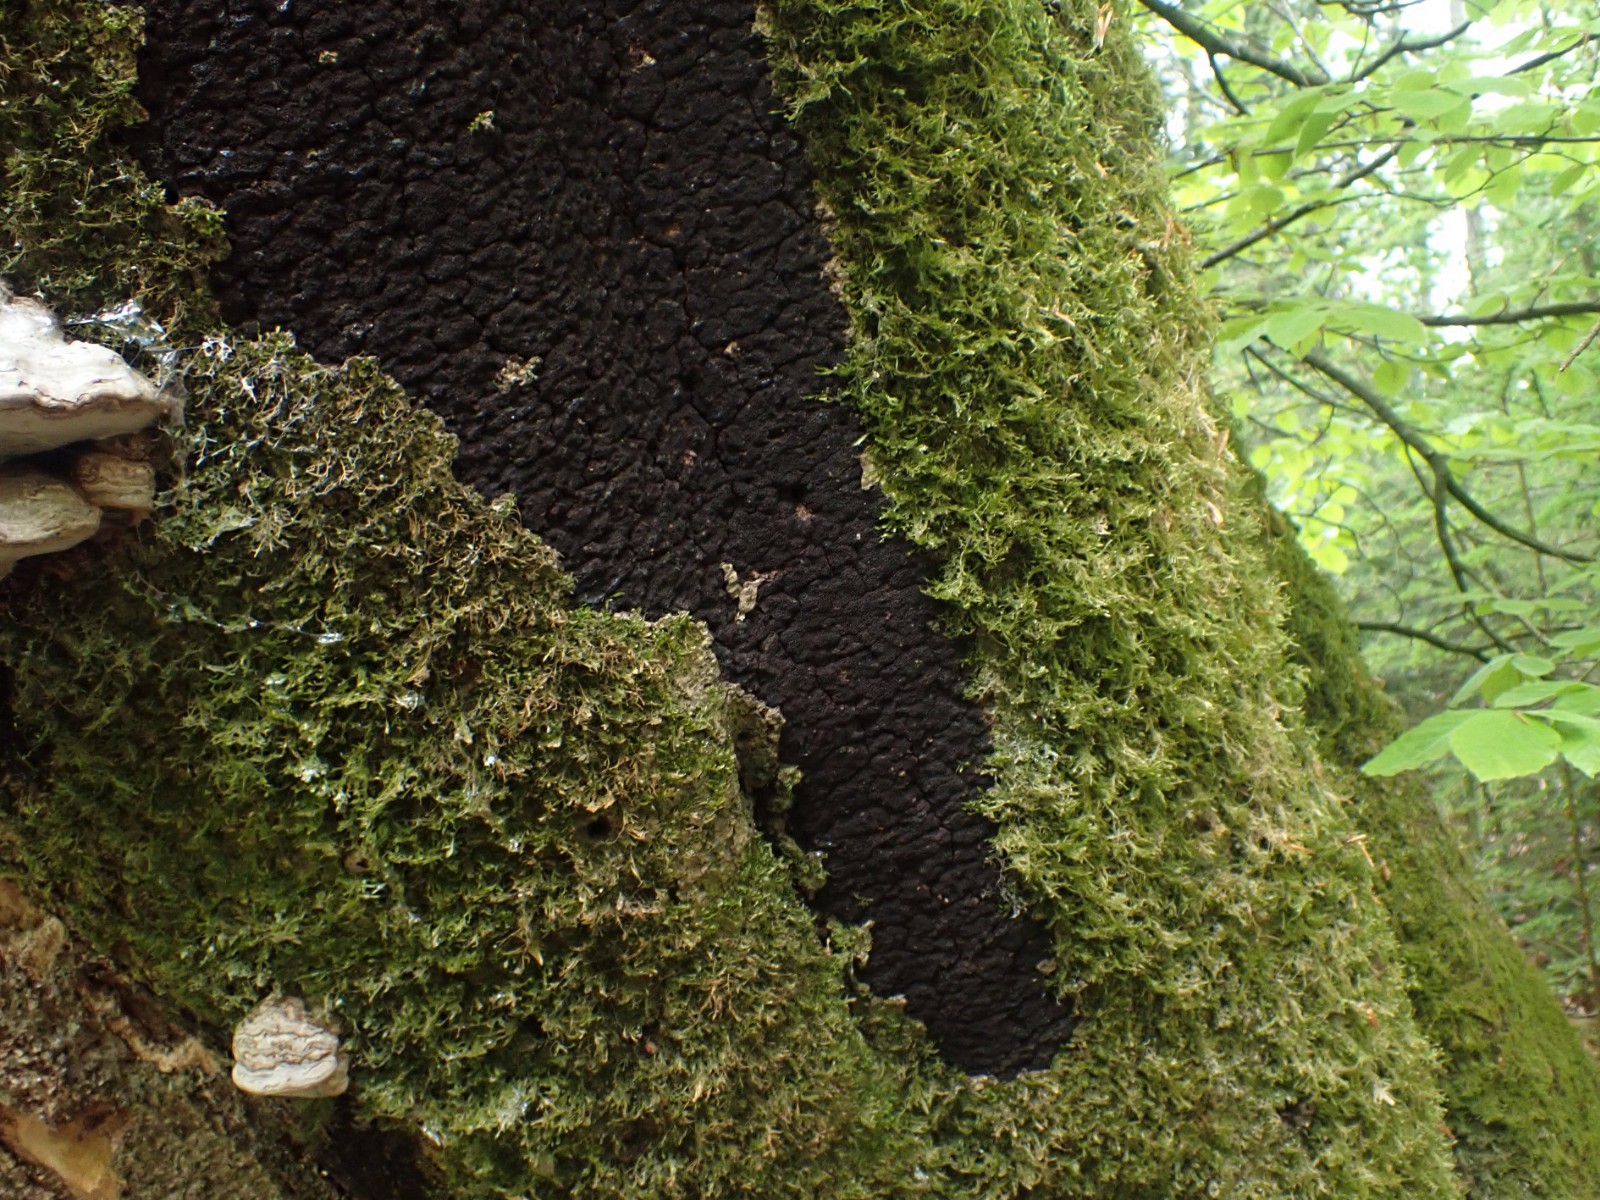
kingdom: Fungi
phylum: Ascomycota
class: Sordariomycetes
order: Xylariales
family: Diatrypaceae
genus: Eutypa
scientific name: Eutypa spinosa
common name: grov kulskorpe
